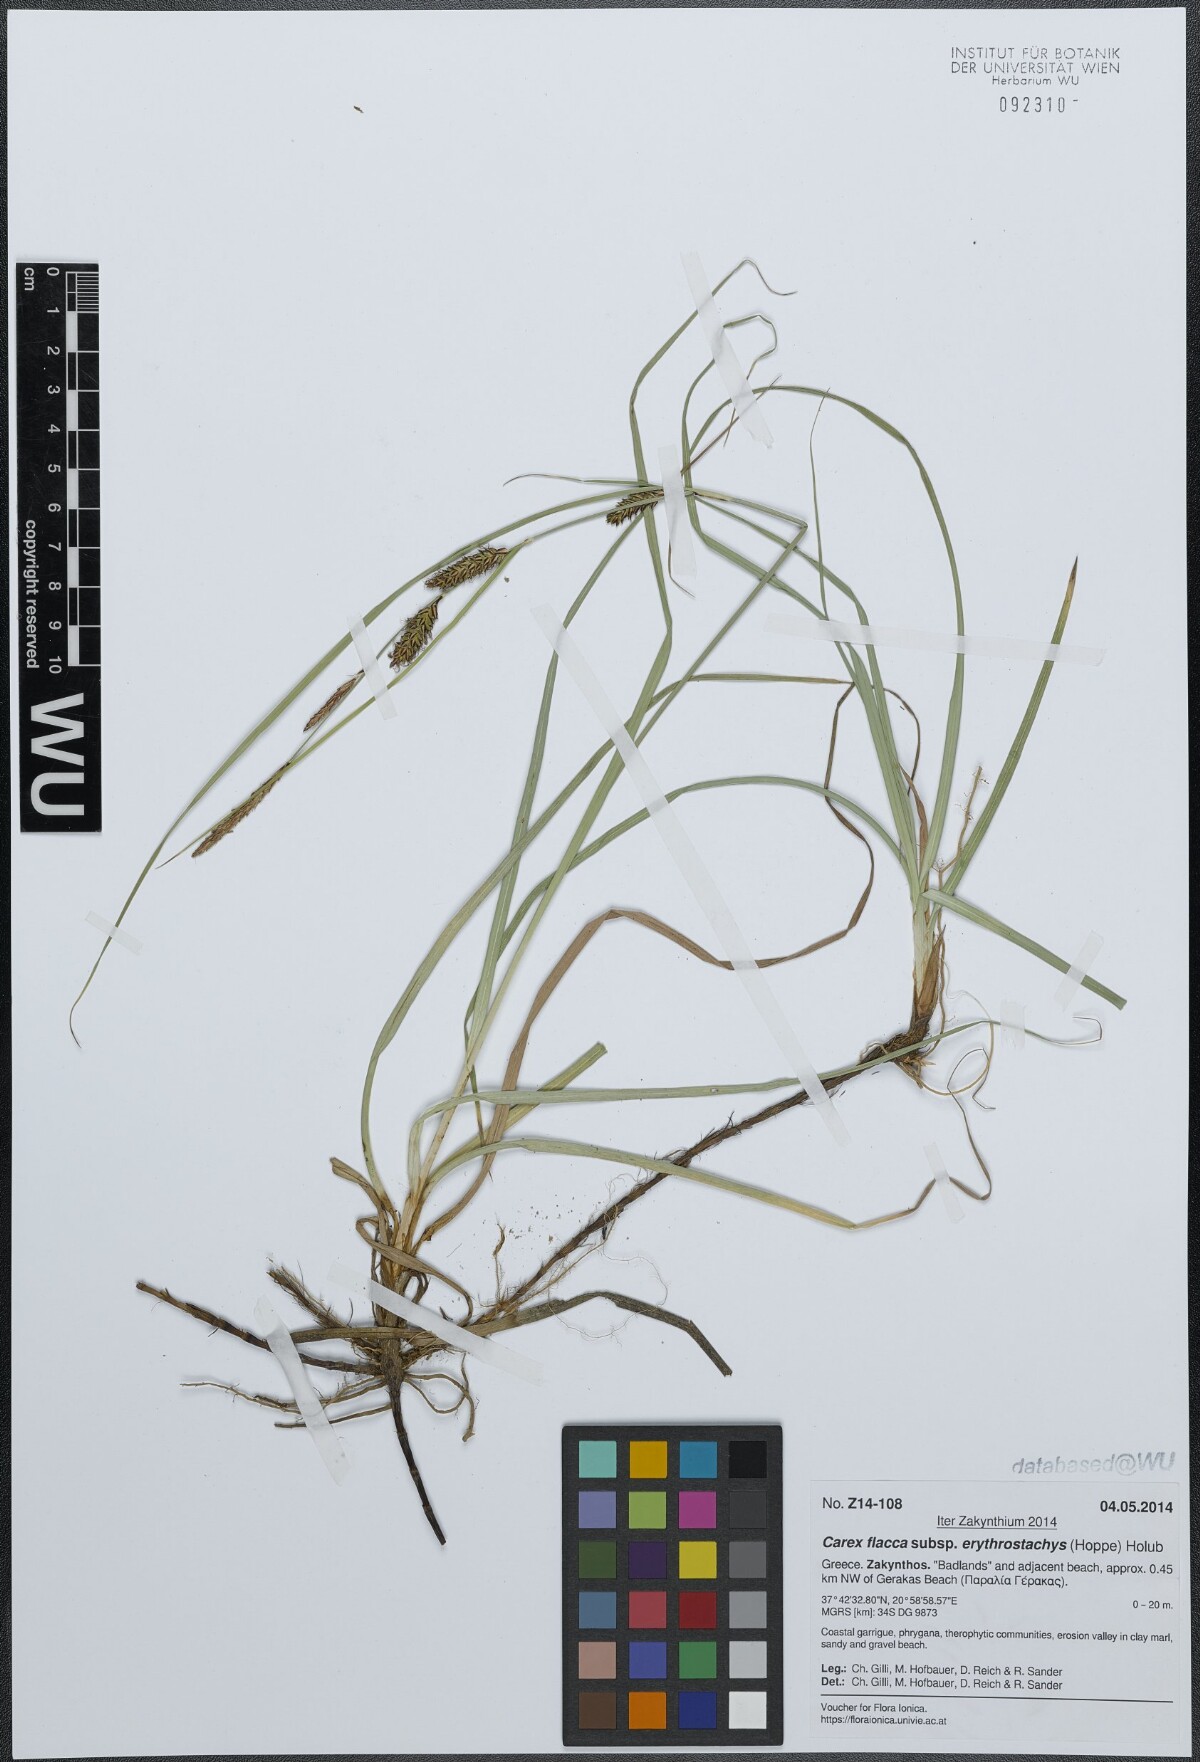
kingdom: Plantae
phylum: Tracheophyta
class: Liliopsida
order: Poales
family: Cyperaceae
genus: Carex
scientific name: Carex flacca
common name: Glaucous sedge
